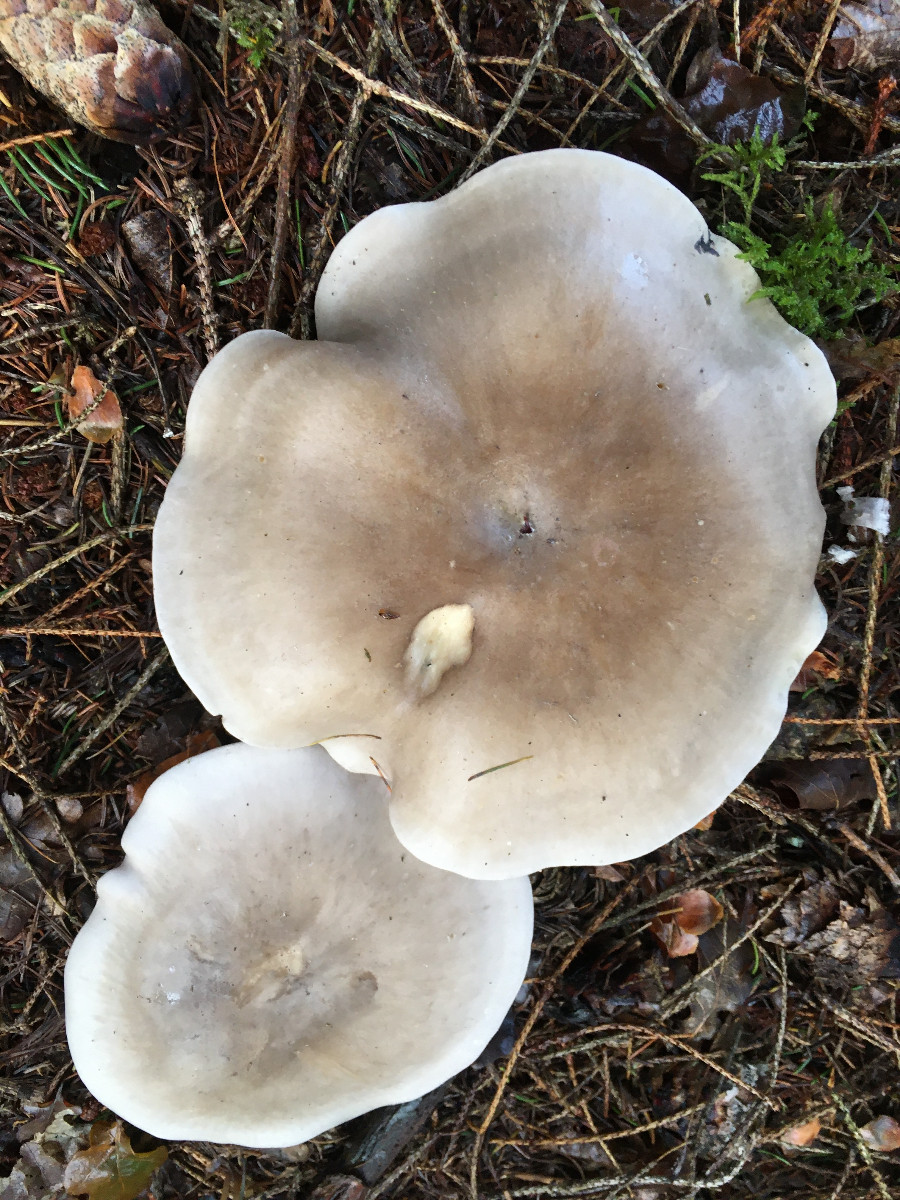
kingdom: Fungi
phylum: Basidiomycota
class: Agaricomycetes
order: Agaricales
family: Tricholomataceae
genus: Clitocybe
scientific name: Clitocybe nebularis
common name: tåge-tragthat
